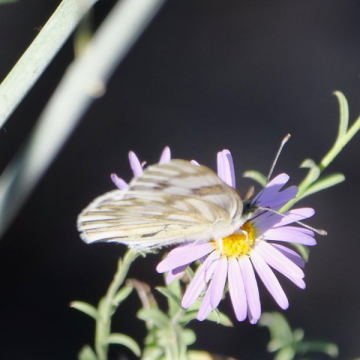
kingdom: Animalia
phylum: Arthropoda
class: Insecta
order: Lepidoptera
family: Pieridae
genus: Pontia
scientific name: Pontia occidentalis
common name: Western White
